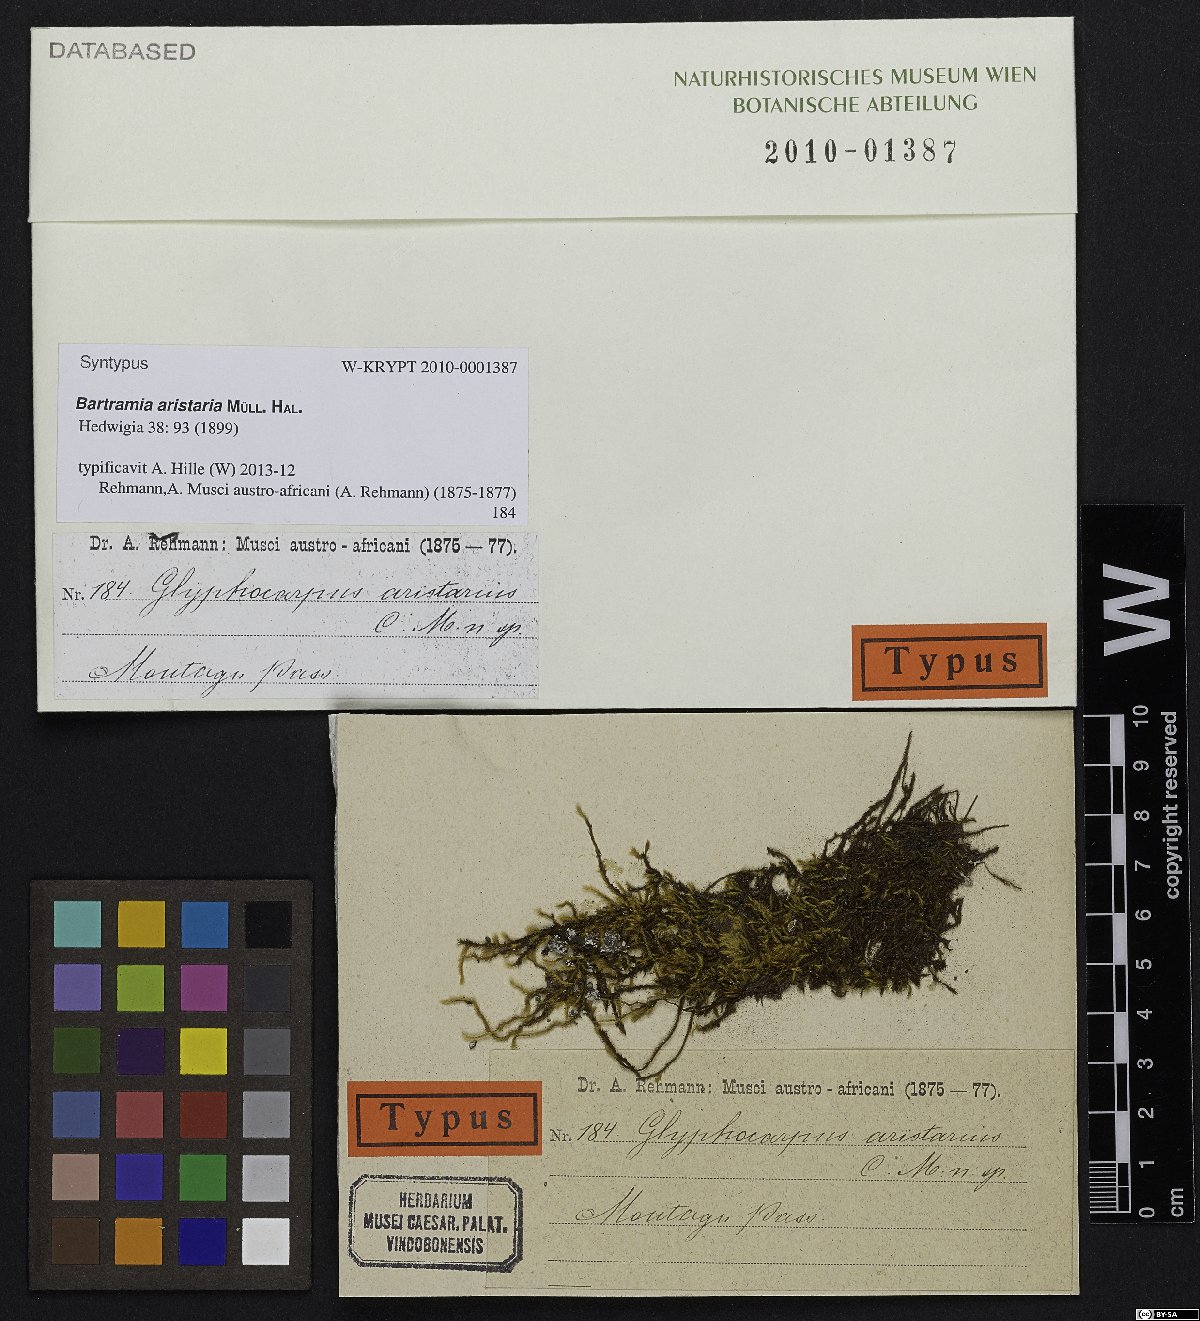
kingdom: Plantae
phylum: Bryophyta
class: Bryopsida
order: Bartramiales
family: Bartramiaceae
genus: Bartramia
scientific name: Bartramia aristaria
